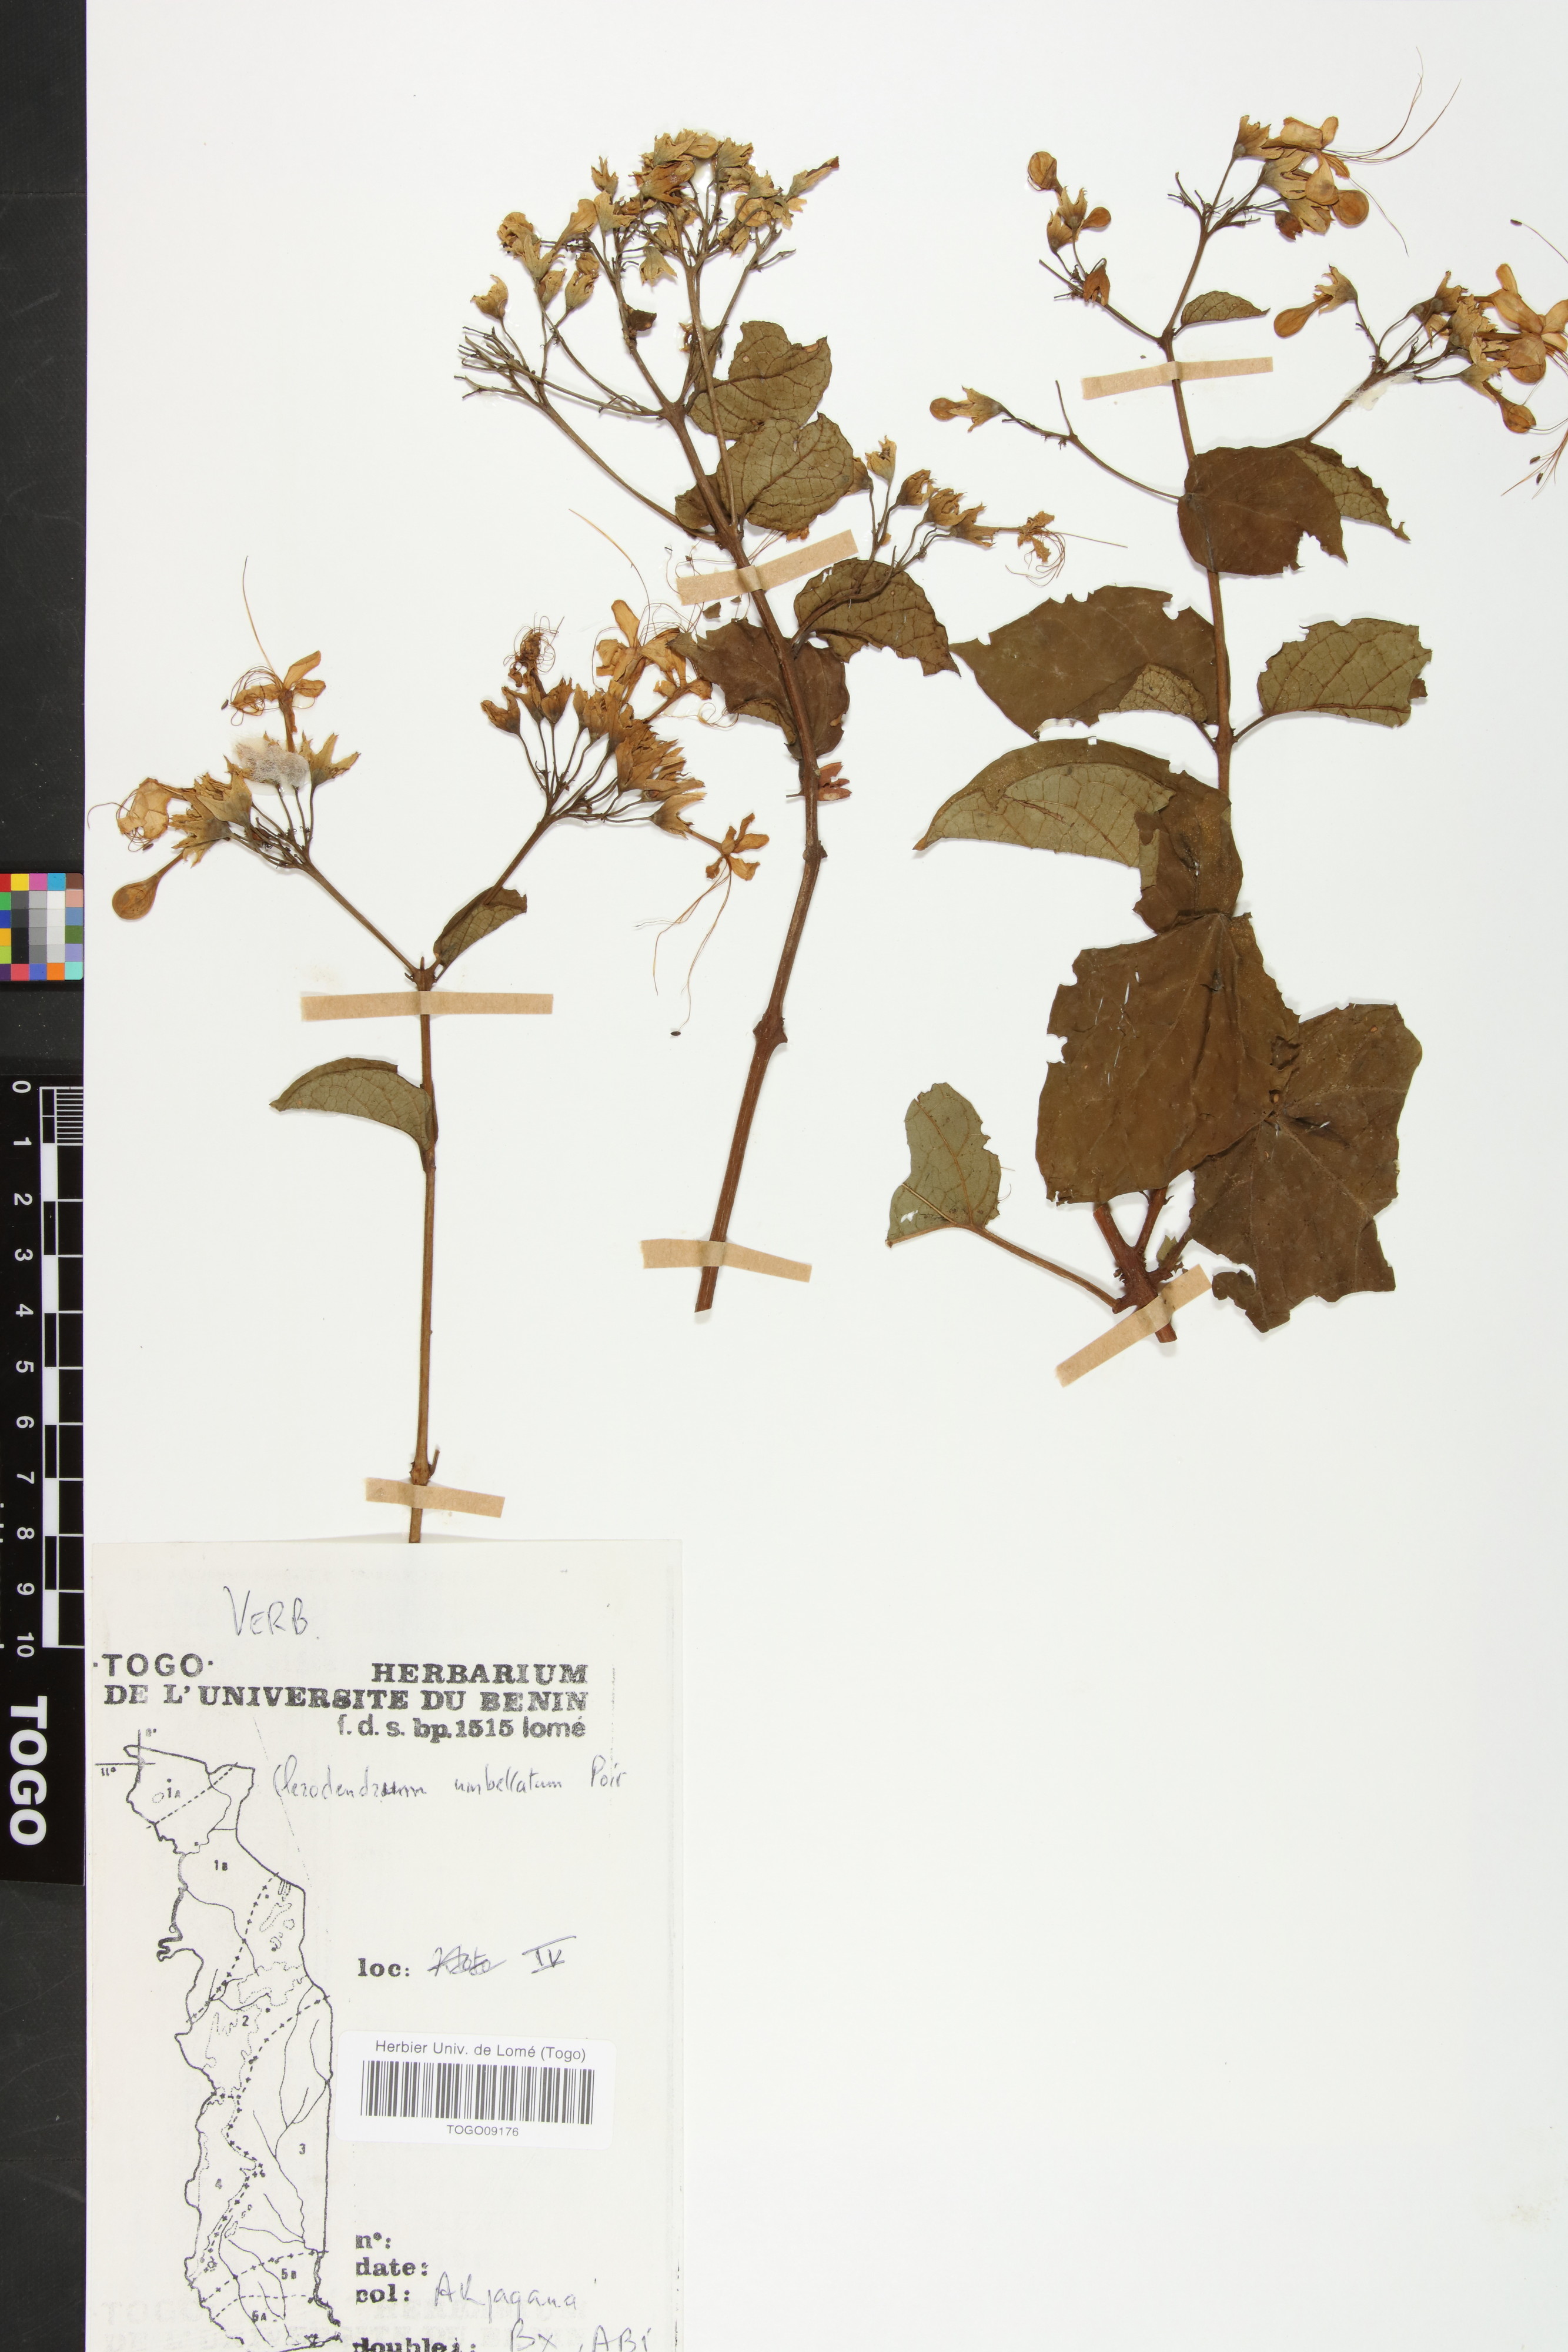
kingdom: Plantae
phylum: Tracheophyta
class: Magnoliopsida
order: Lamiales
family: Lamiaceae
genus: Clerodendrum
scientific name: Clerodendrum umbellatum
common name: Umbel clerodendrum
